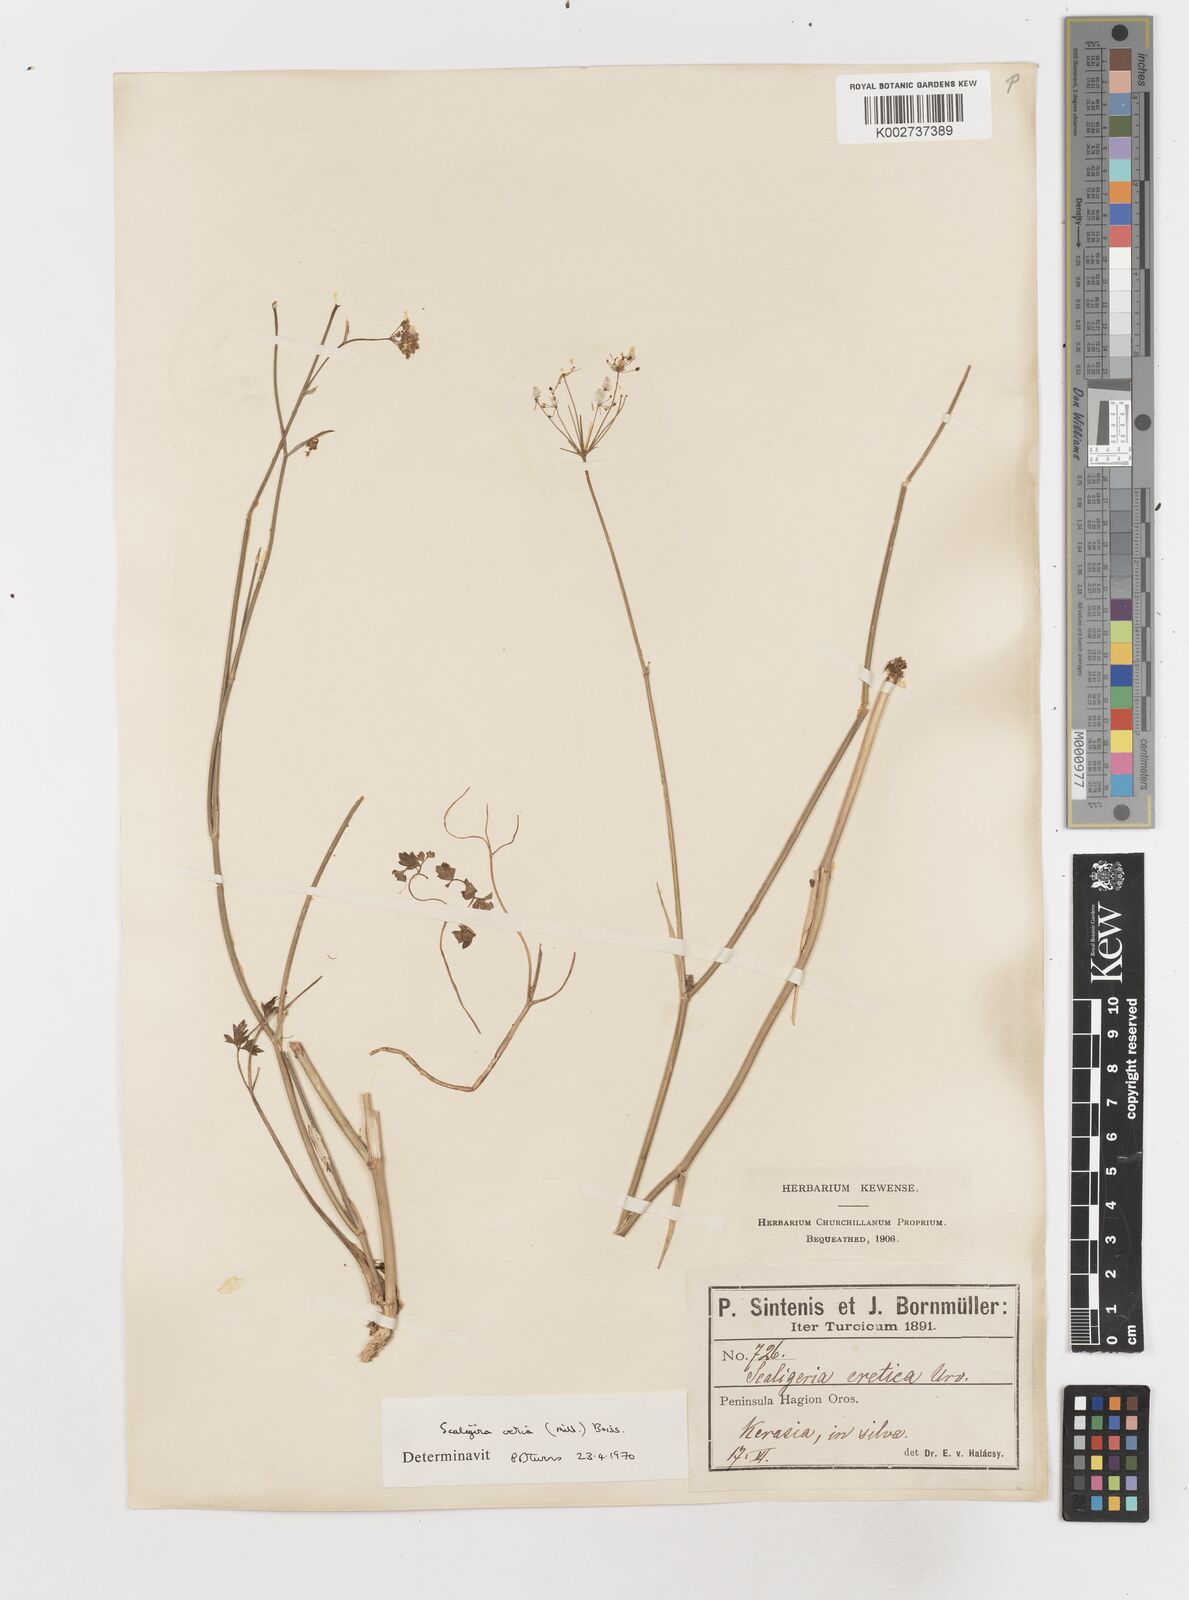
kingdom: Plantae
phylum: Tracheophyta
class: Magnoliopsida
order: Apiales
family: Apiaceae
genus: Scaligeria
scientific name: Scaligeria
